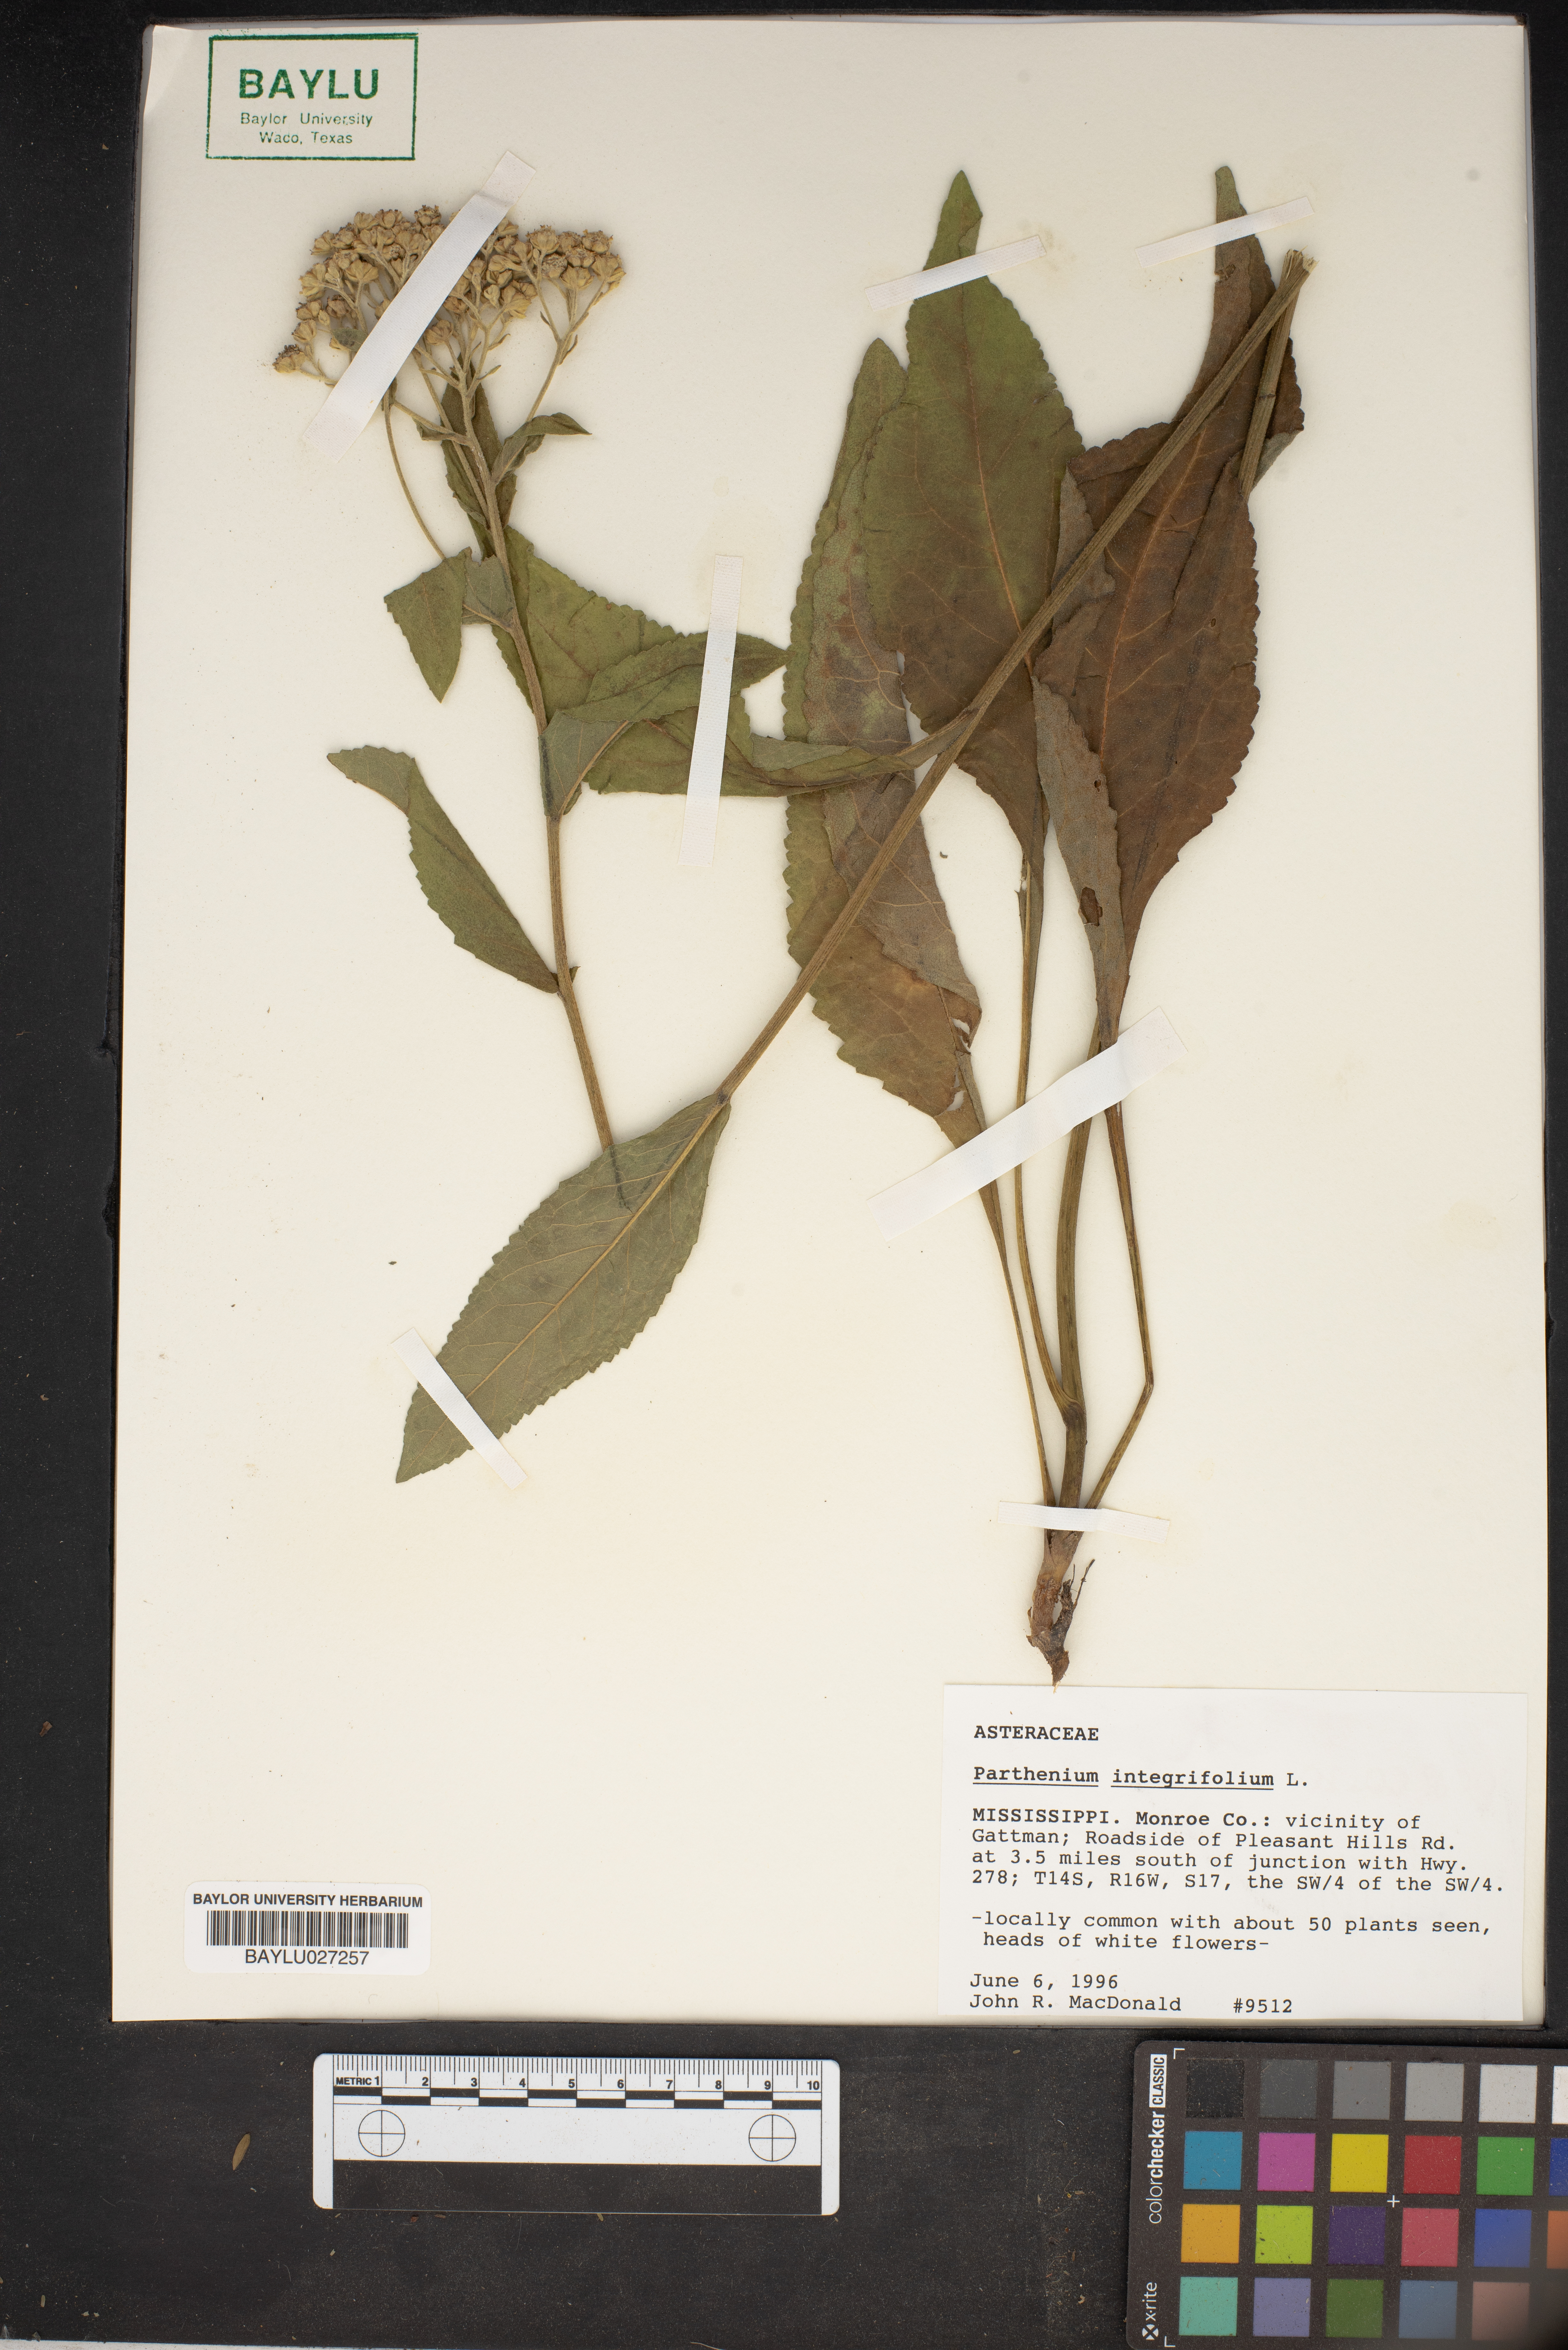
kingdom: Plantae
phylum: Tracheophyta
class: Magnoliopsida
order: Asterales
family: Asteraceae
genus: Parthenium
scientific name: Parthenium integrifolium
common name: American feverfew
